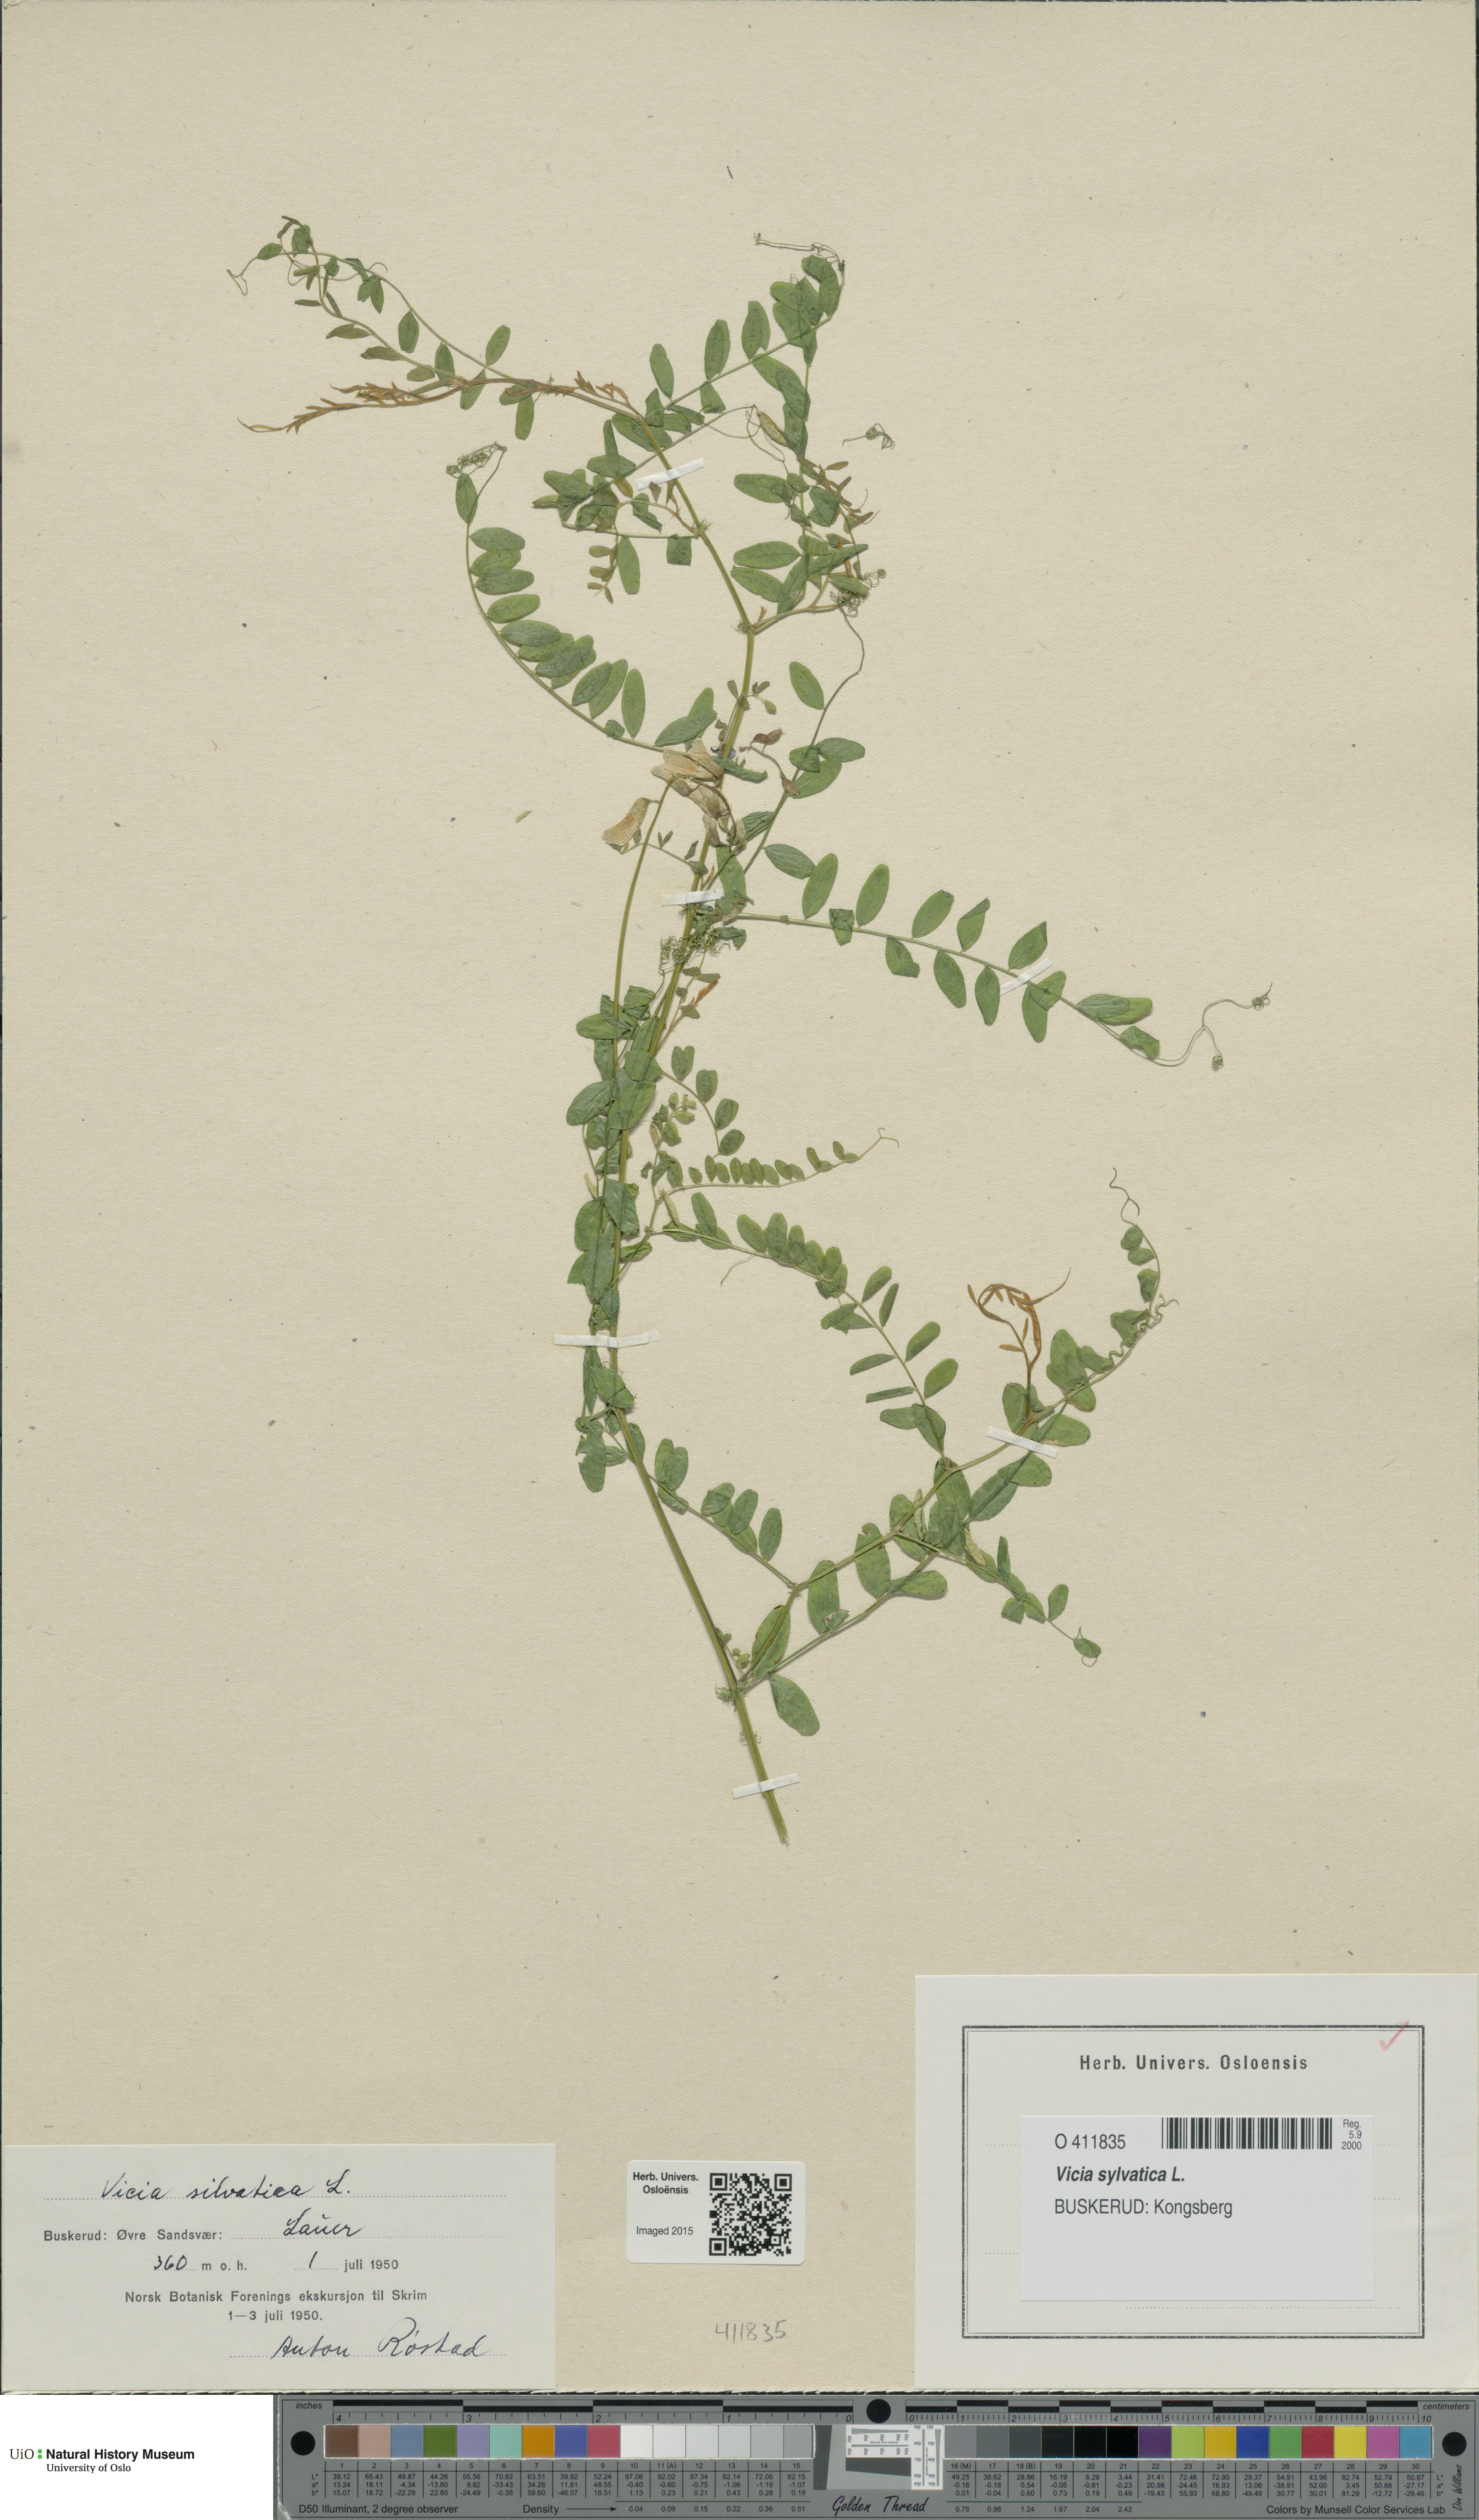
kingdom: Plantae
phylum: Tracheophyta
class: Magnoliopsida
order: Fabales
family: Fabaceae
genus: Vicia
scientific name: Vicia sylvatica
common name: Wood vetch
